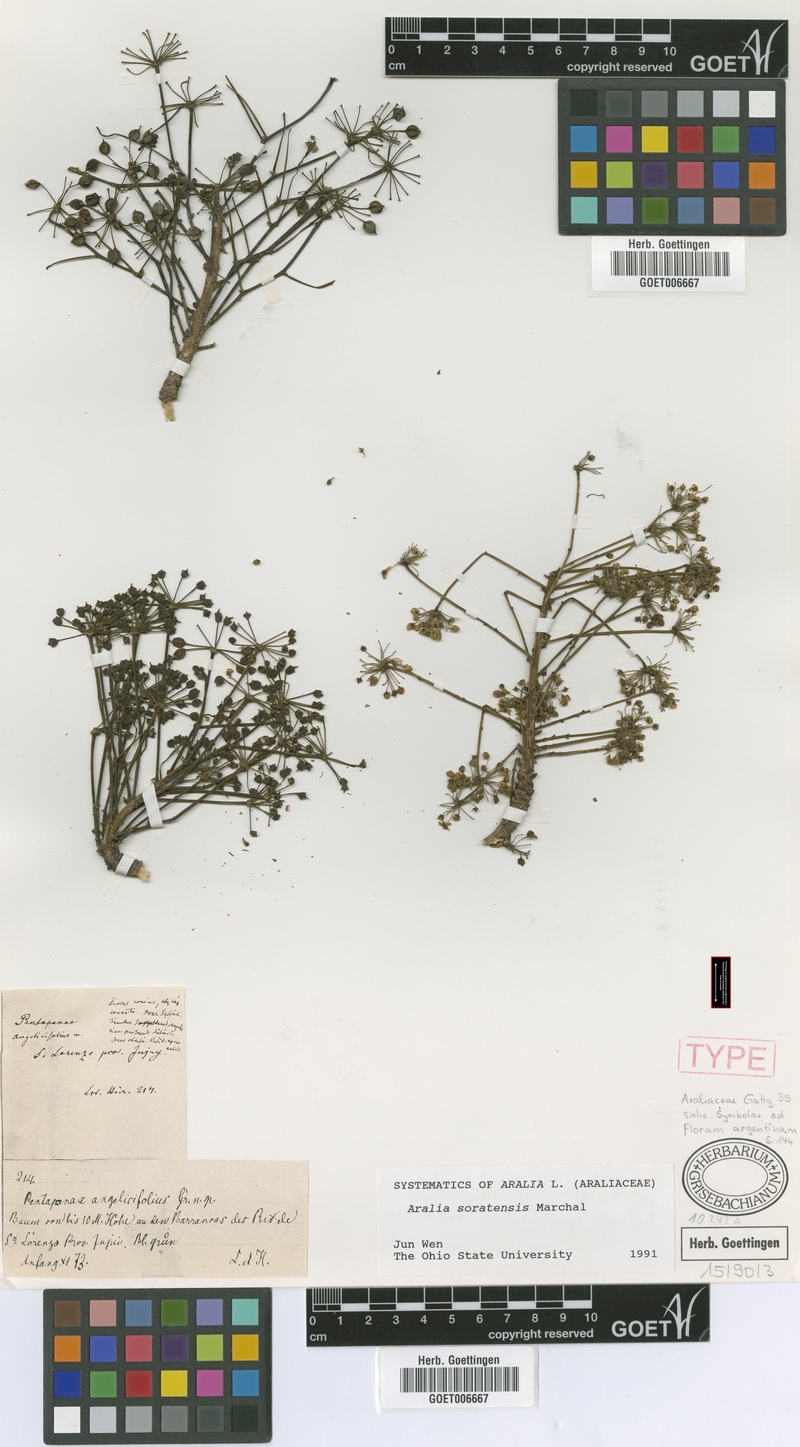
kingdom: Plantae
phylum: Tracheophyta
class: Magnoliopsida
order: Apiales
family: Araliaceae
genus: Aralia
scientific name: Aralia soratensis
